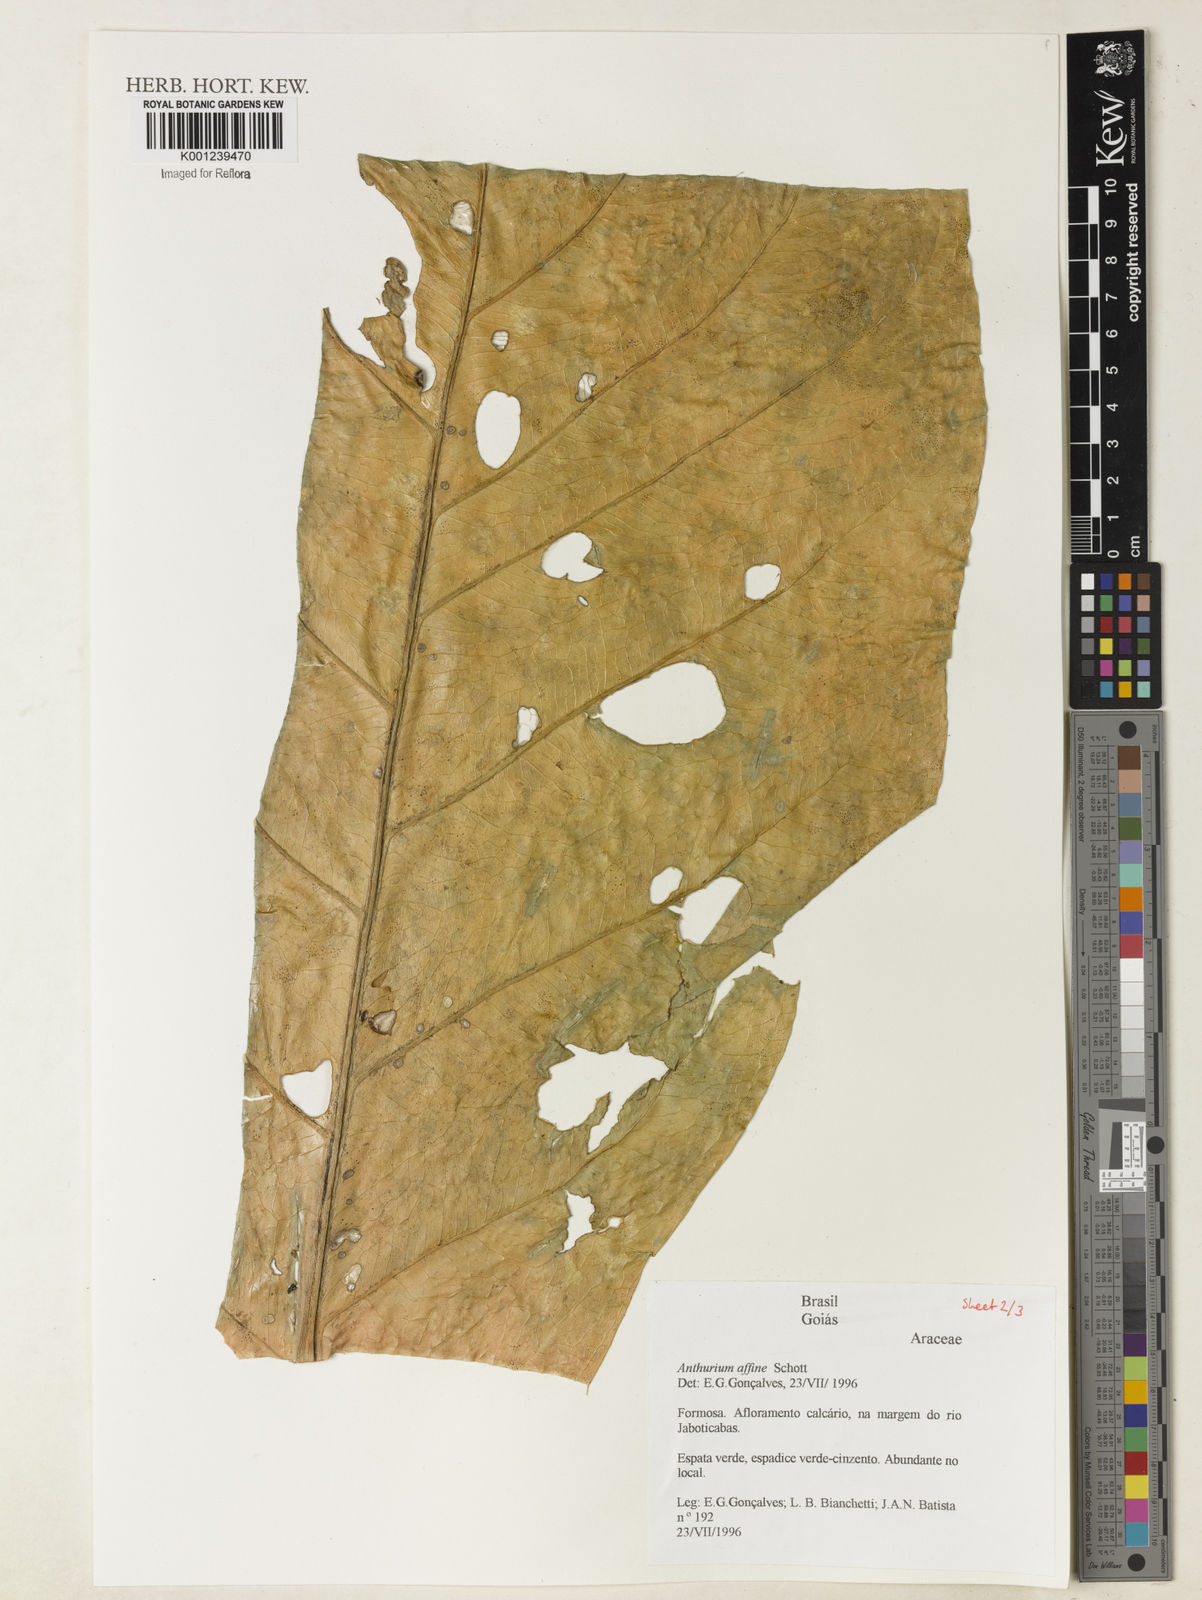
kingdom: Plantae
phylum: Tracheophyta
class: Liliopsida
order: Alismatales
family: Araceae
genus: Anthurium
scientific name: Anthurium affine
